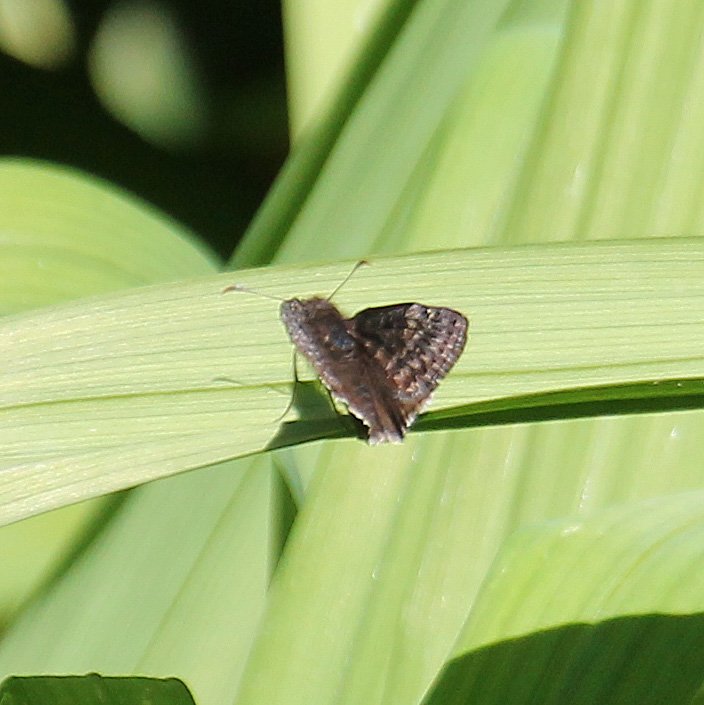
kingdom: Animalia
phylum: Arthropoda
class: Insecta
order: Lepidoptera
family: Hesperiidae
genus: Gesta
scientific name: Gesta
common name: Wild Indigo Duskywing
